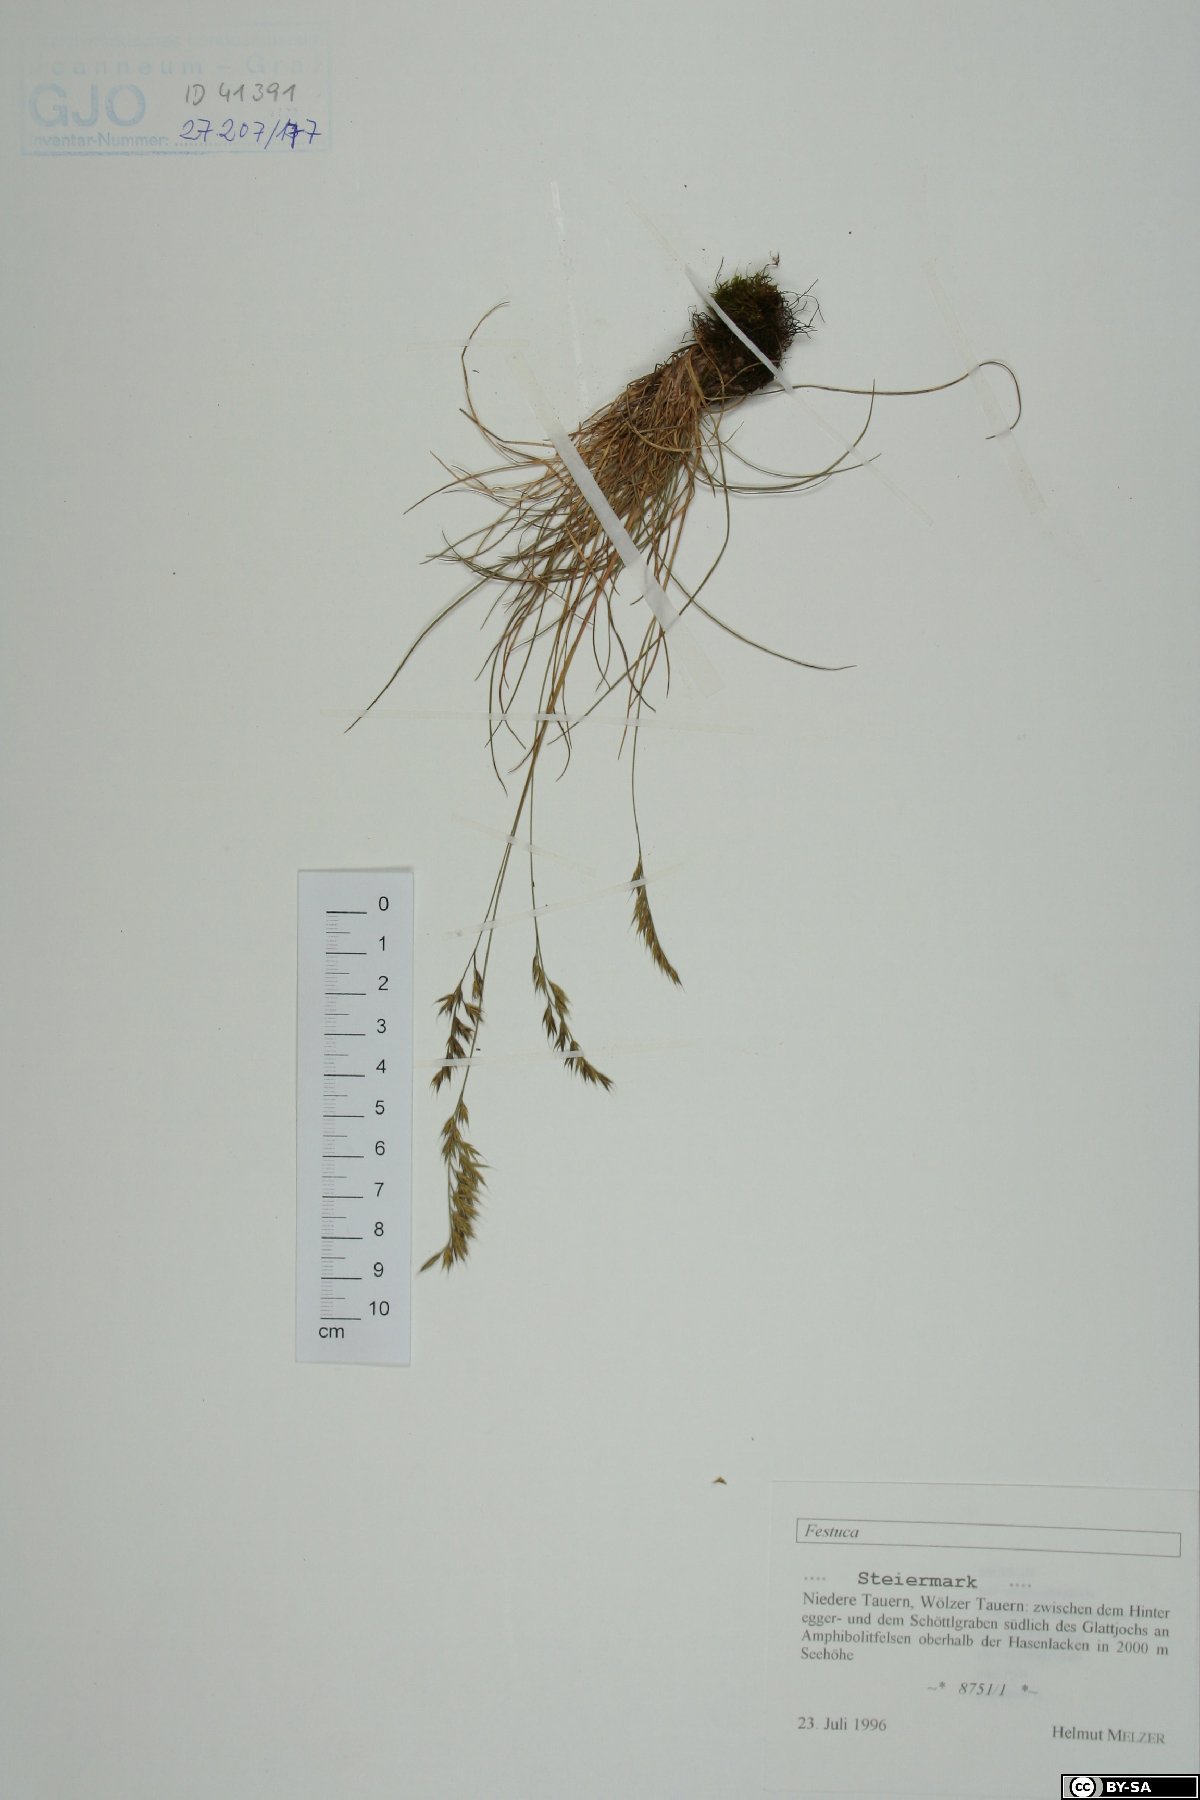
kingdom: Plantae
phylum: Tracheophyta
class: Liliopsida
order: Poales
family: Poaceae
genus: Festuca
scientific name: Festuca
